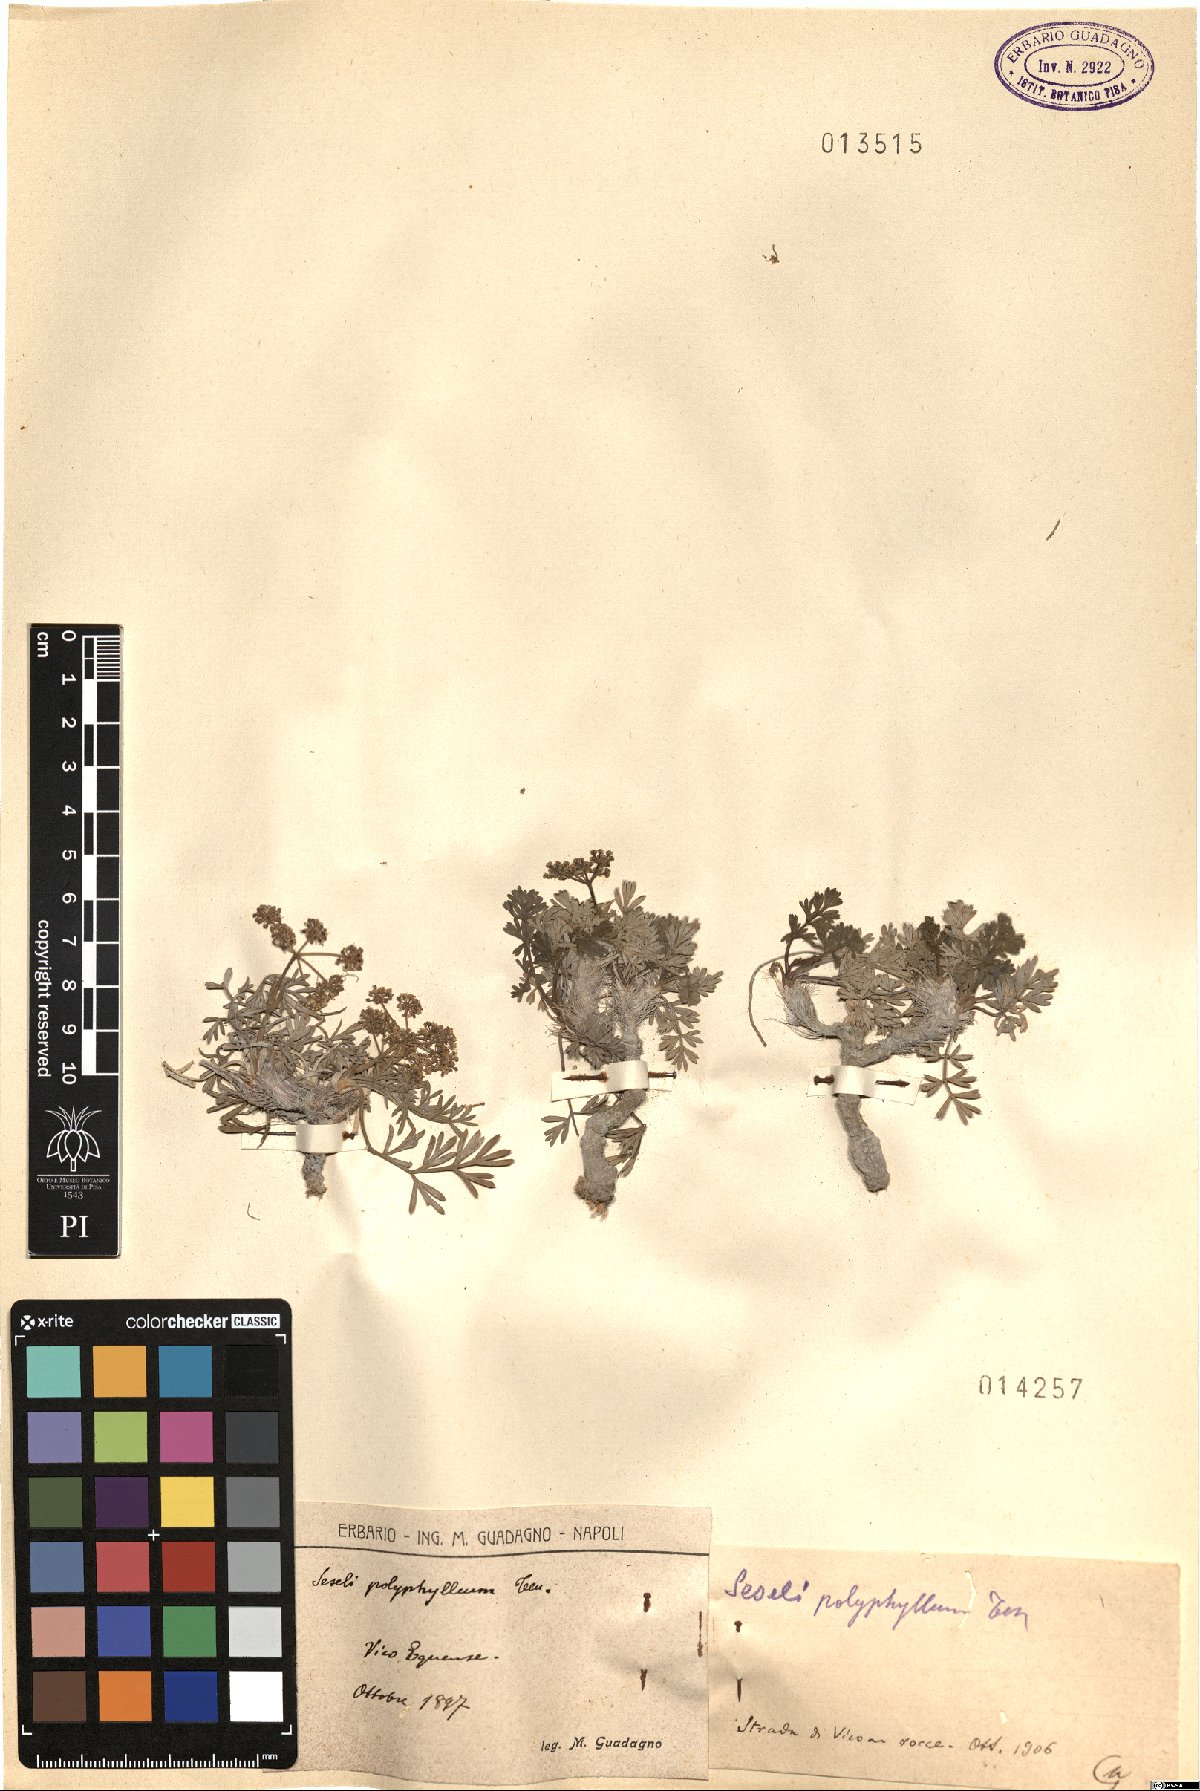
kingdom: Plantae
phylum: Tracheophyta
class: Magnoliopsida
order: Apiales
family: Apiaceae
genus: Seseli
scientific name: Seseli polyphyllum
